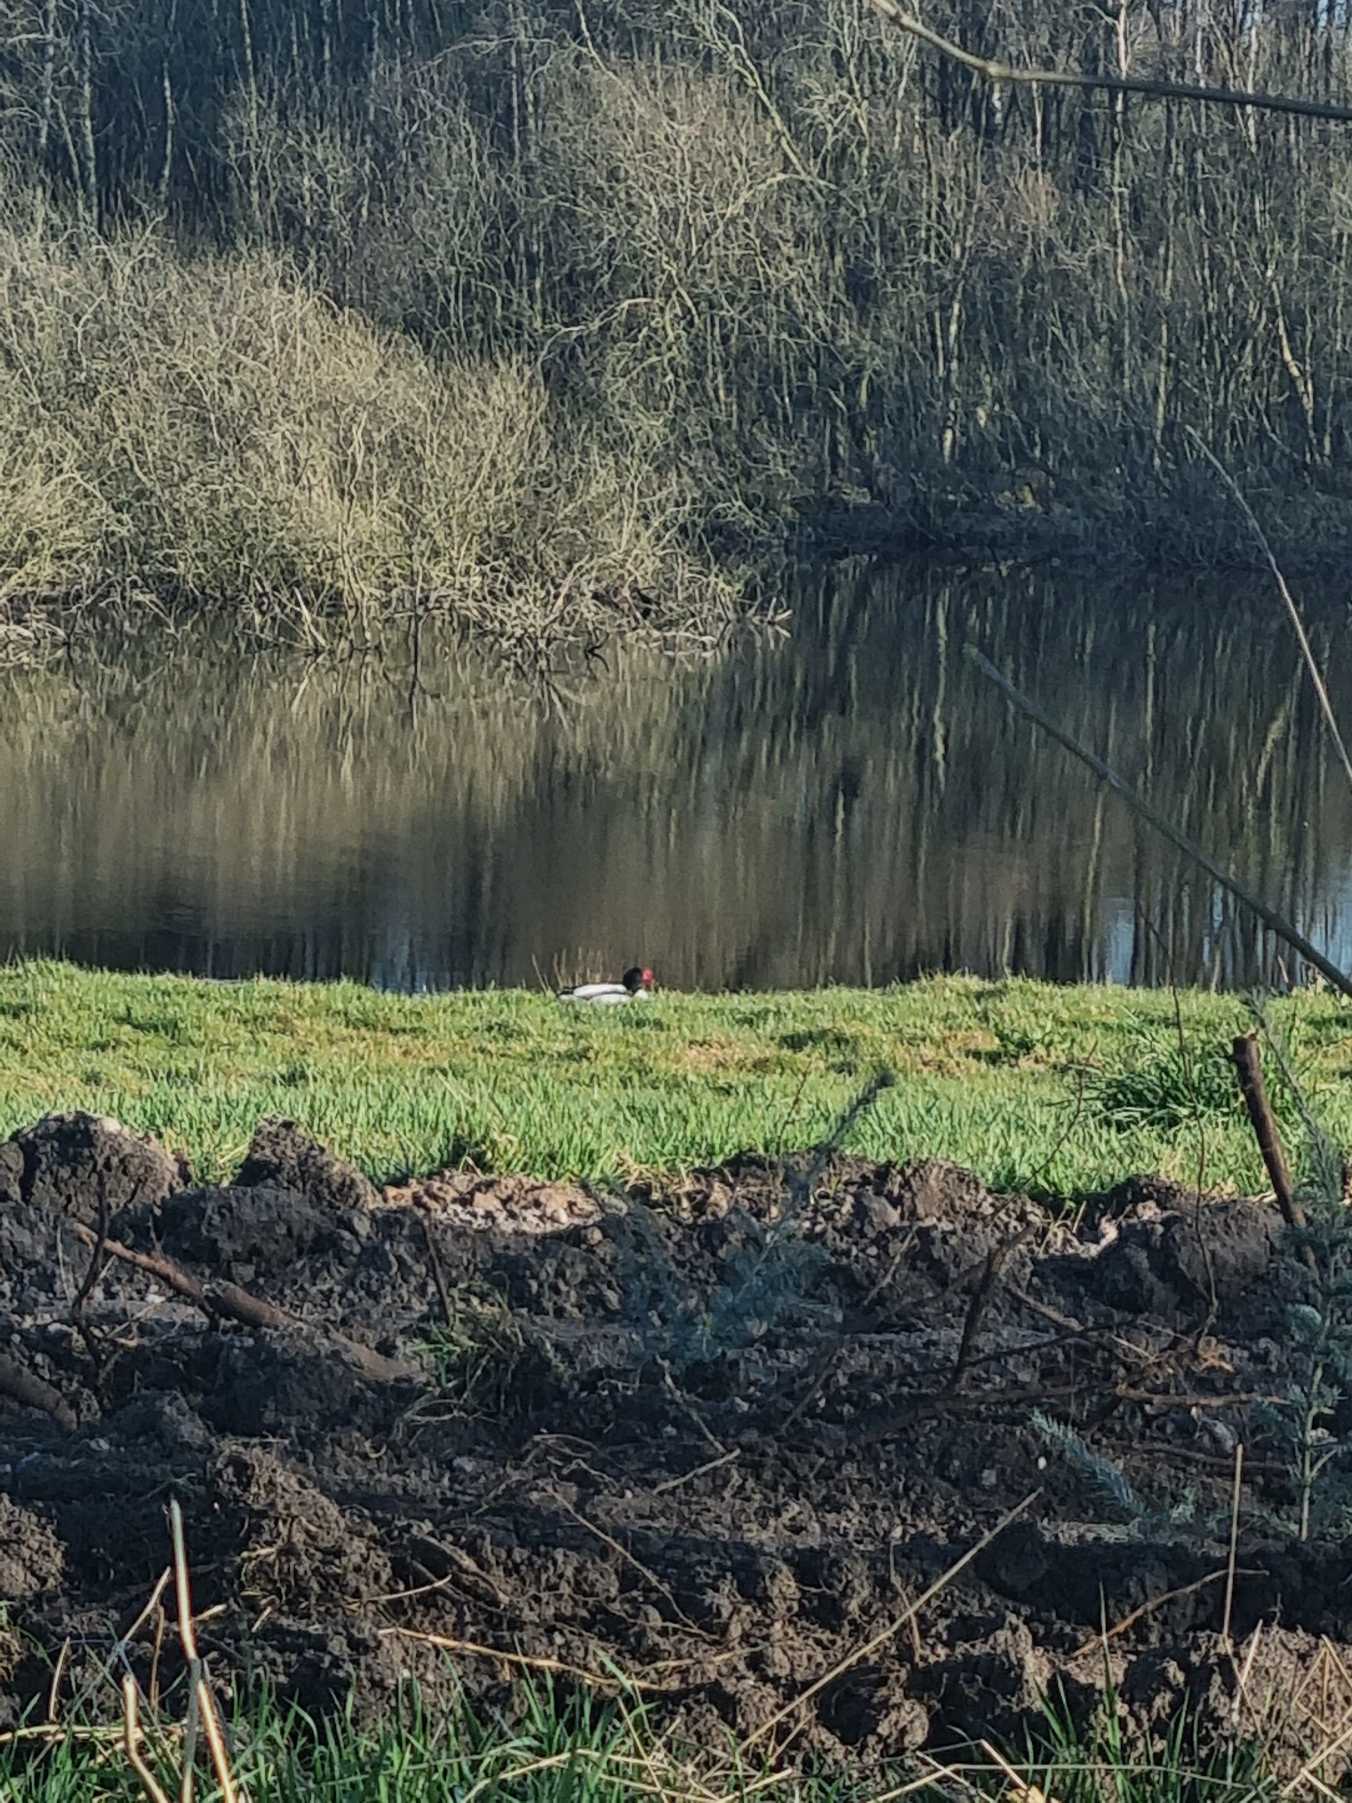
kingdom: Animalia
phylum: Chordata
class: Aves
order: Anseriformes
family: Anatidae
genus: Tadorna
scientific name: Tadorna tadorna
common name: Gravand
